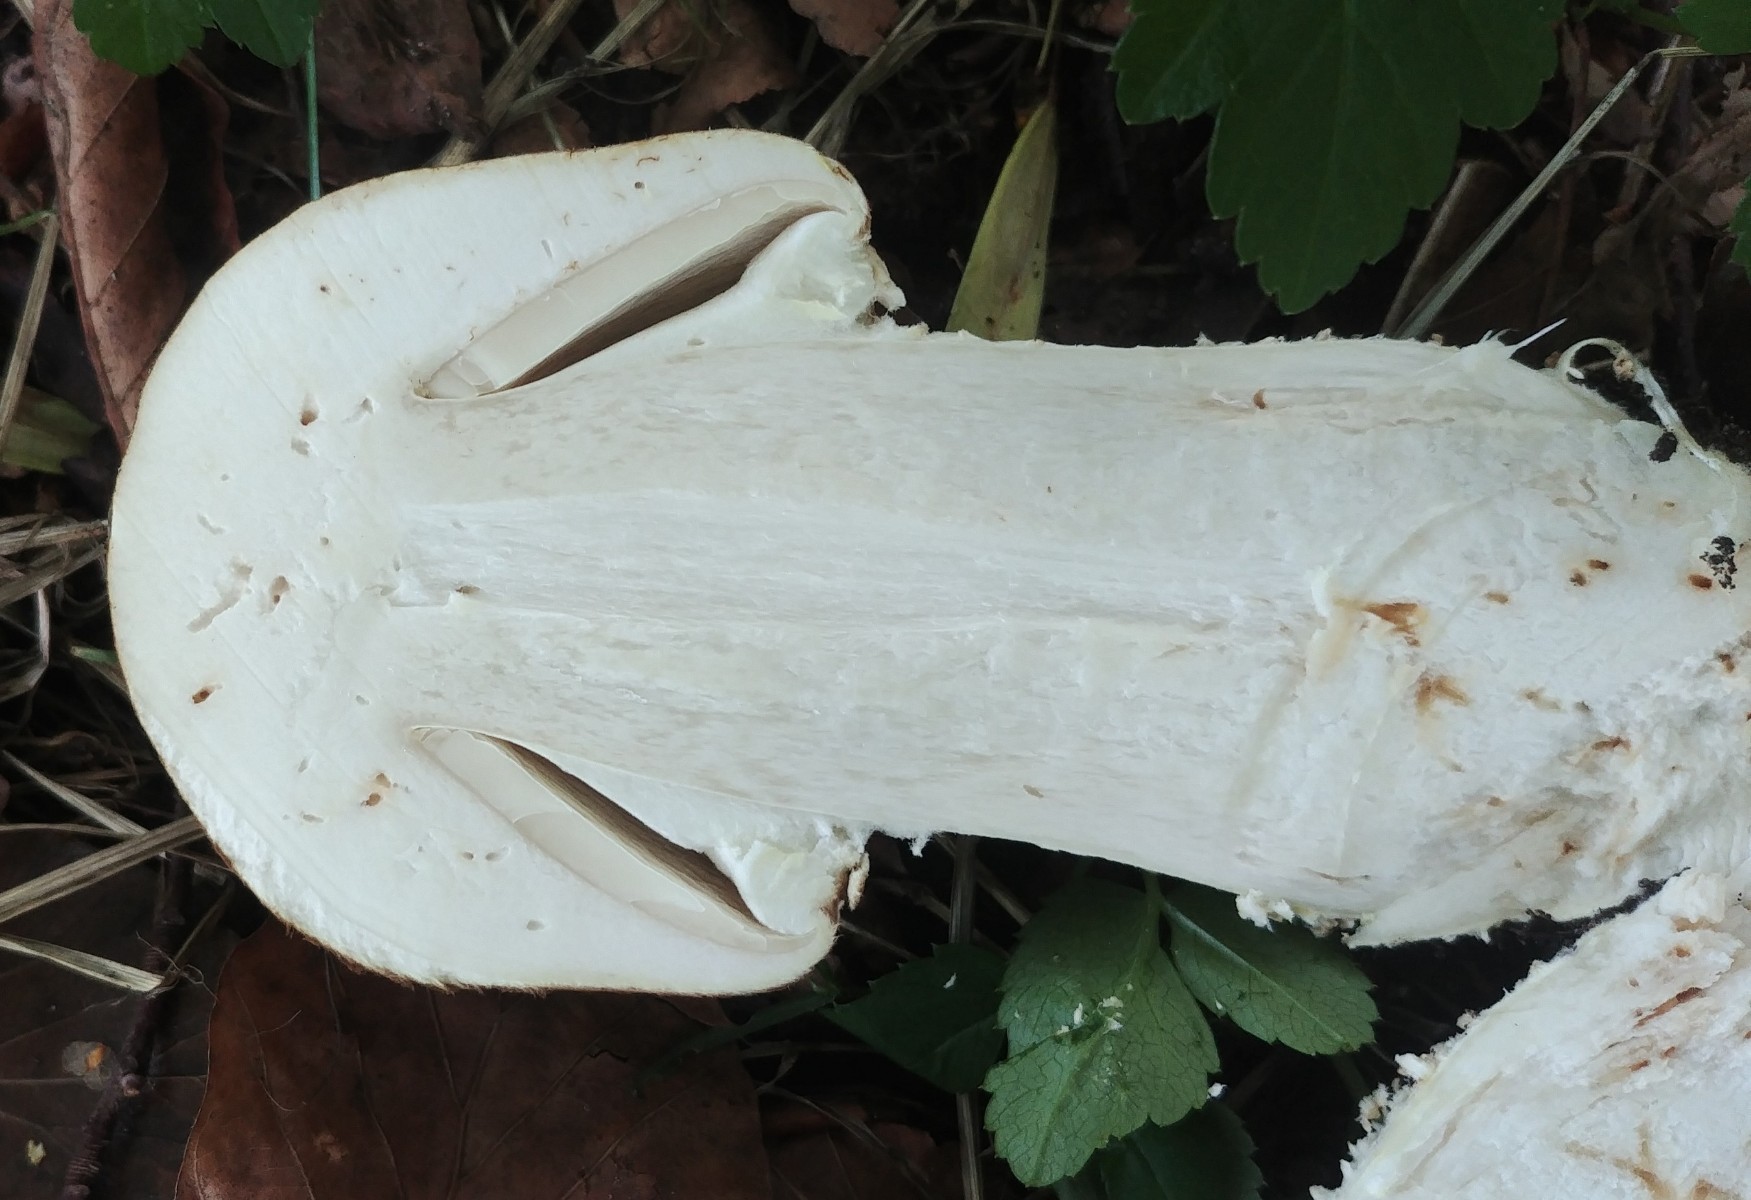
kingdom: Fungi
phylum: Basidiomycota
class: Agaricomycetes
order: Agaricales
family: Agaricaceae
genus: Agaricus
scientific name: Agaricus augustus
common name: prægtig champignon
